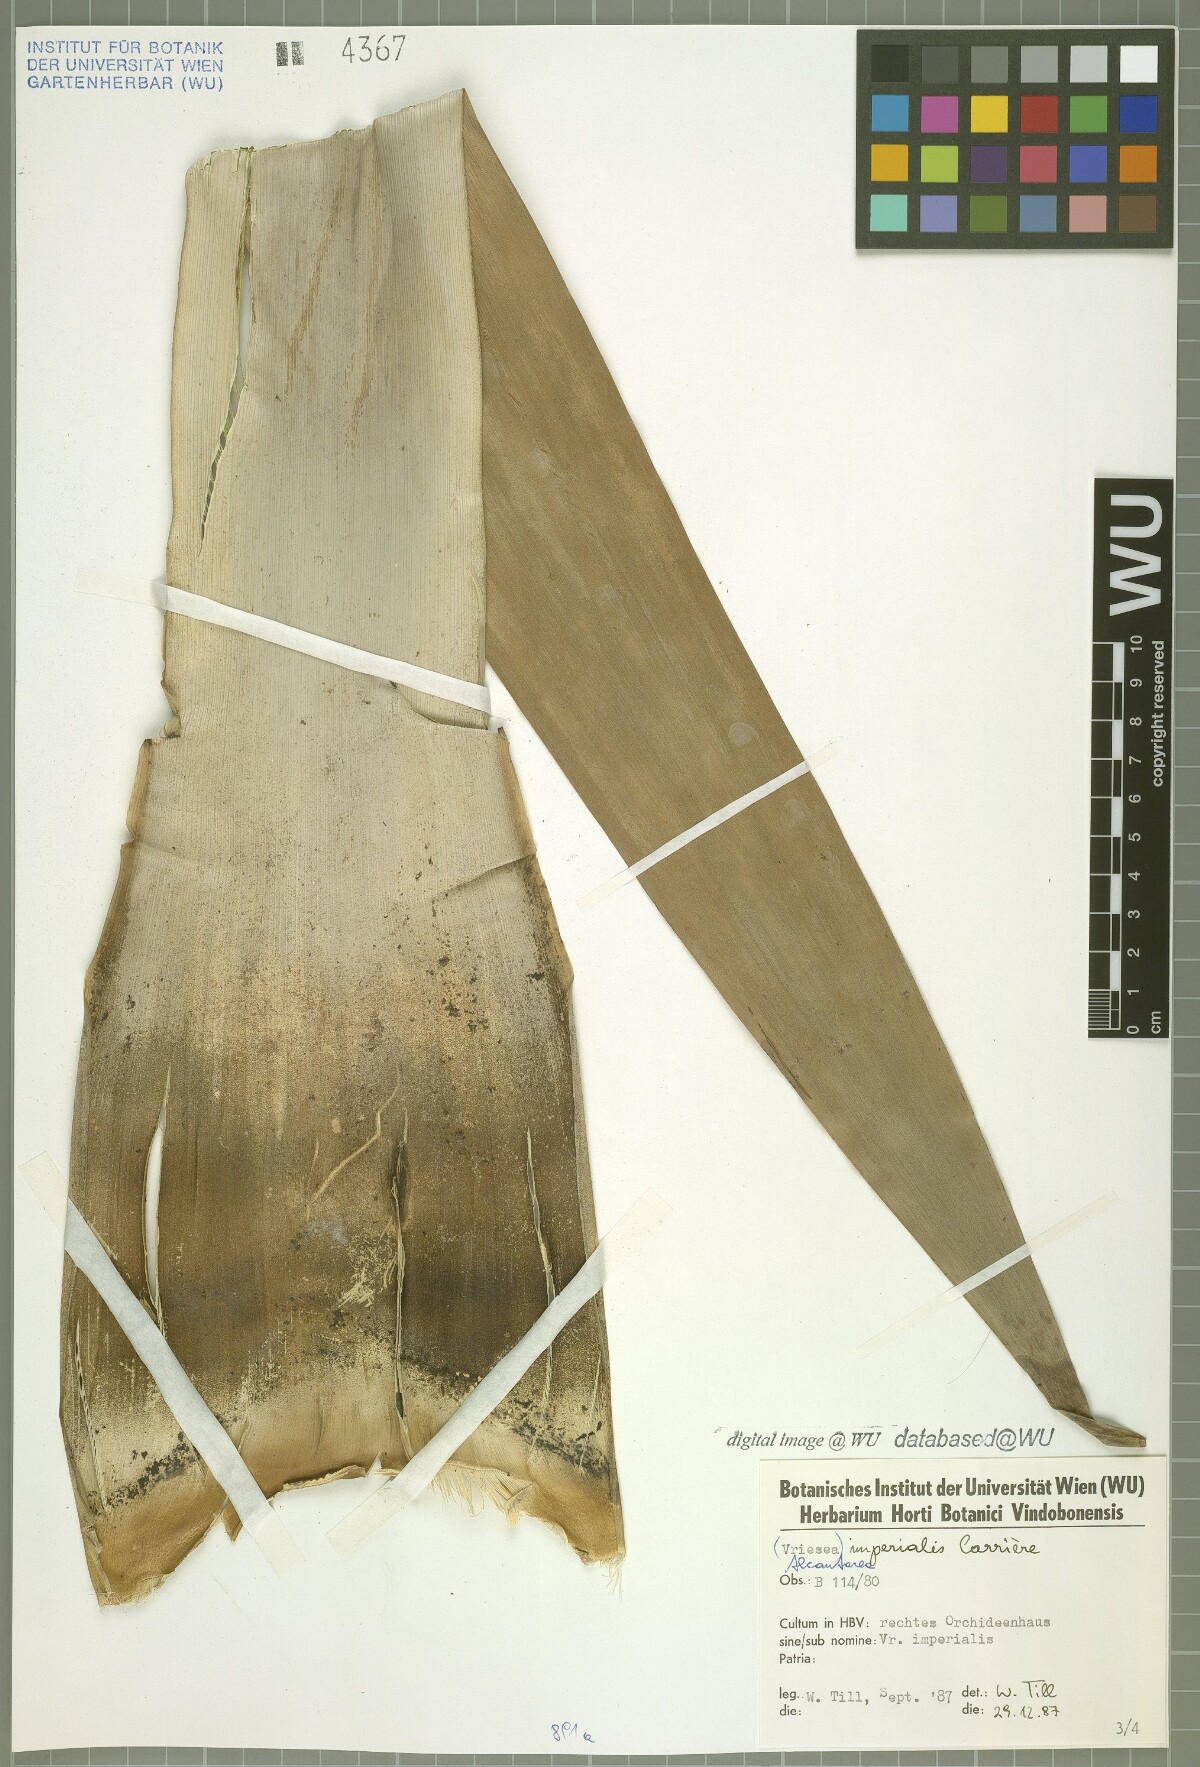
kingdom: Plantae
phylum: Tracheophyta
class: Liliopsida
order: Poales
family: Bromeliaceae
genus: Alcantarea
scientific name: Alcantarea imperialis
